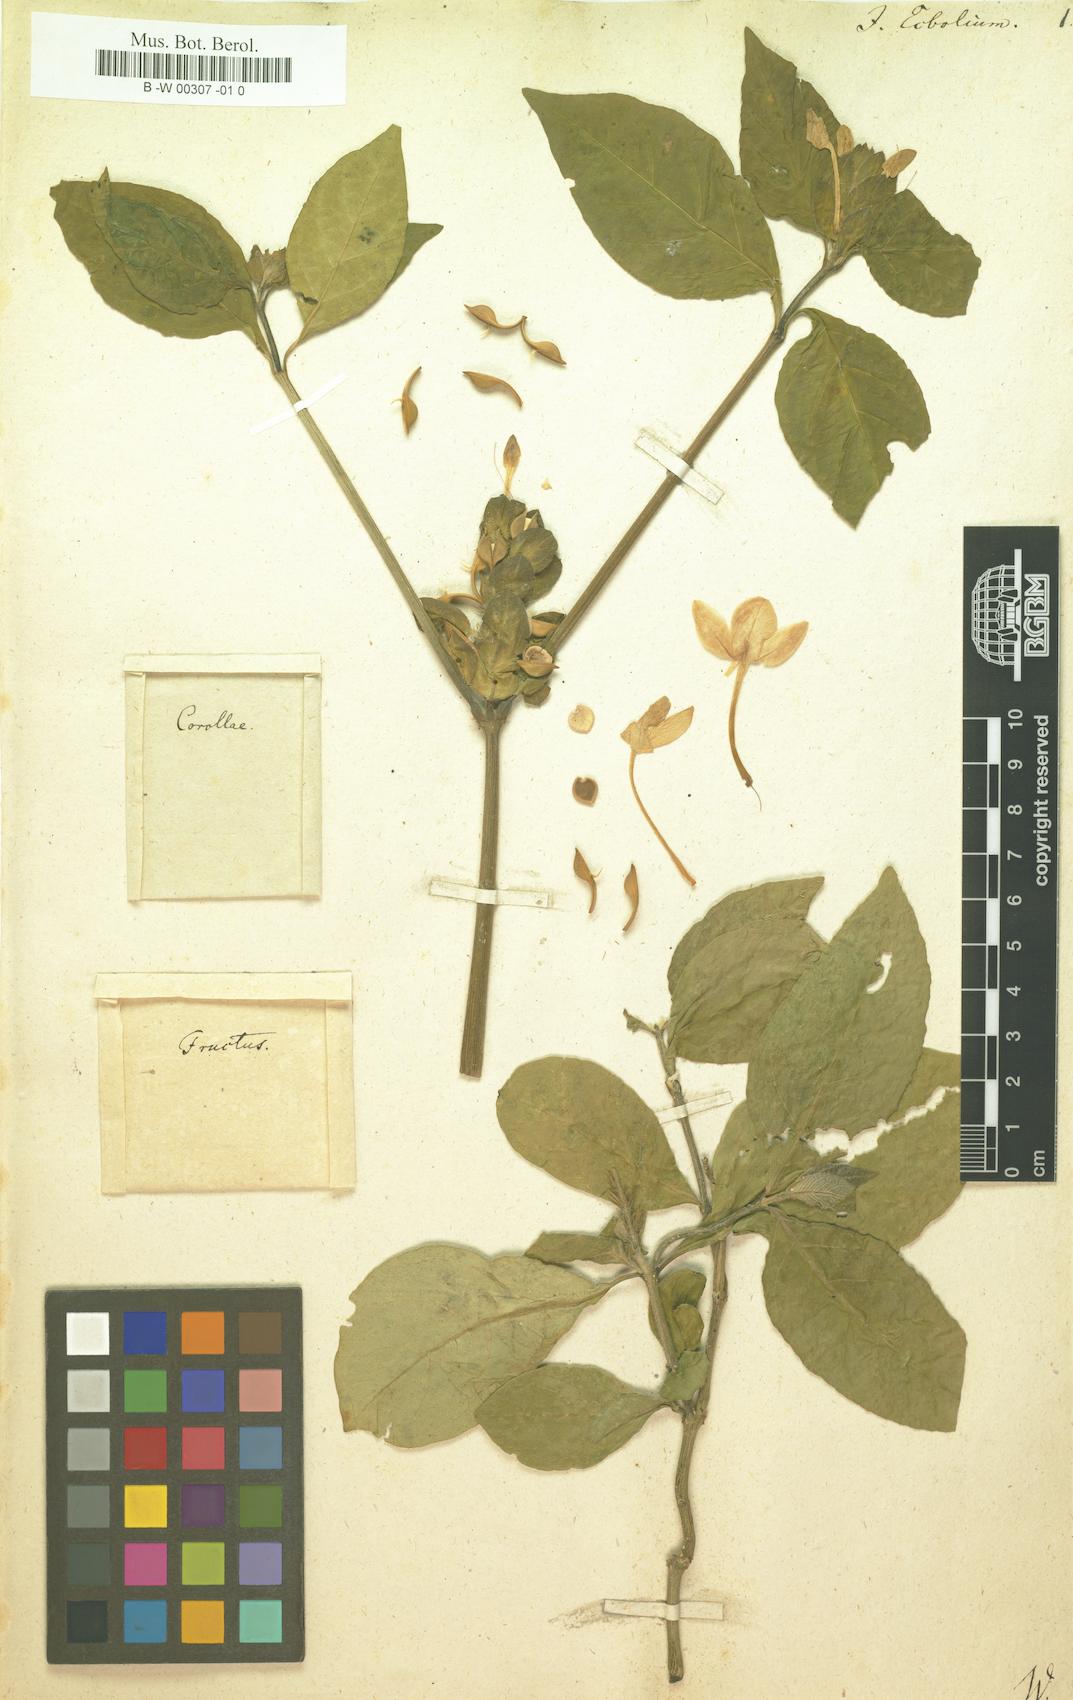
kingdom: Plantae
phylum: Tracheophyta
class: Magnoliopsida
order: Lamiales
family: Acanthaceae
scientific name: Acanthaceae
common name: Acanthaceae
